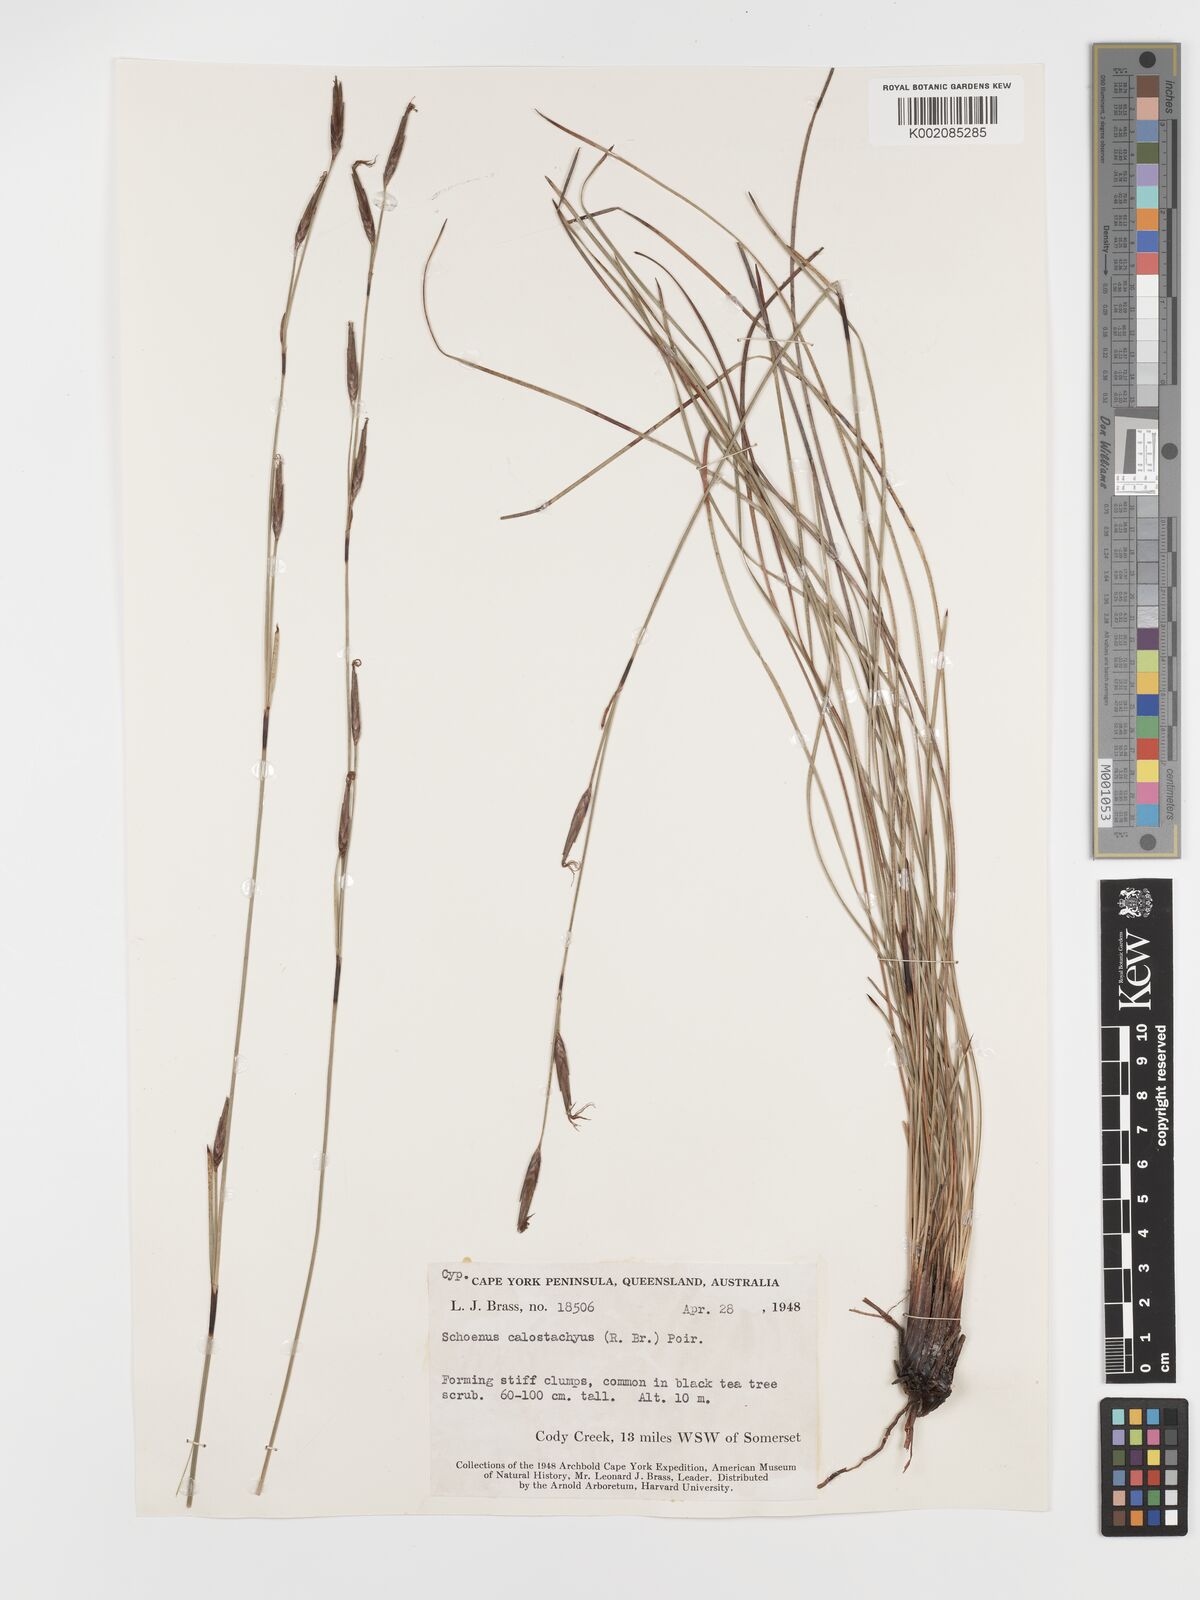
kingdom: Plantae
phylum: Tracheophyta
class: Liliopsida
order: Poales
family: Cyperaceae
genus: Schoenus
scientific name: Schoenus calostachyus
